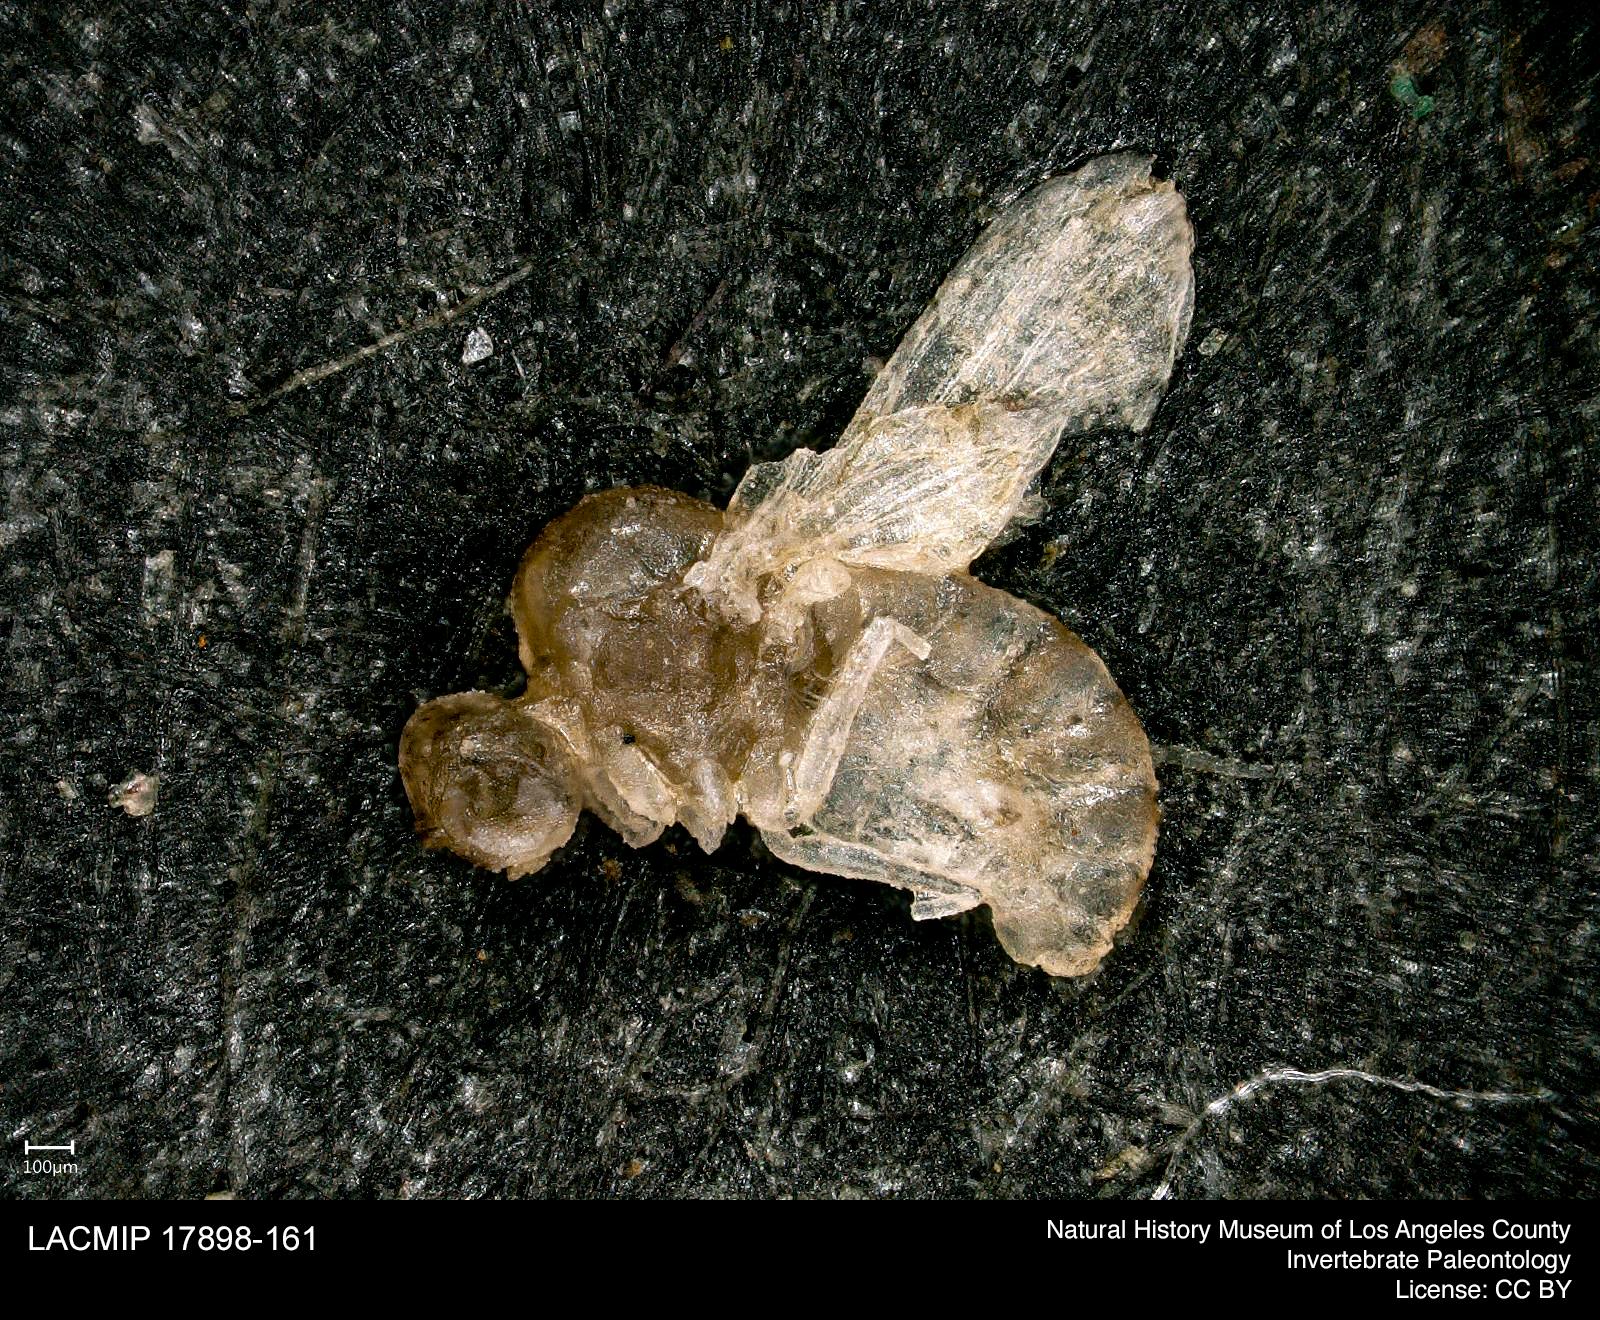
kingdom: Animalia
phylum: Arthropoda
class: Insecta
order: Diptera
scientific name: Diptera
